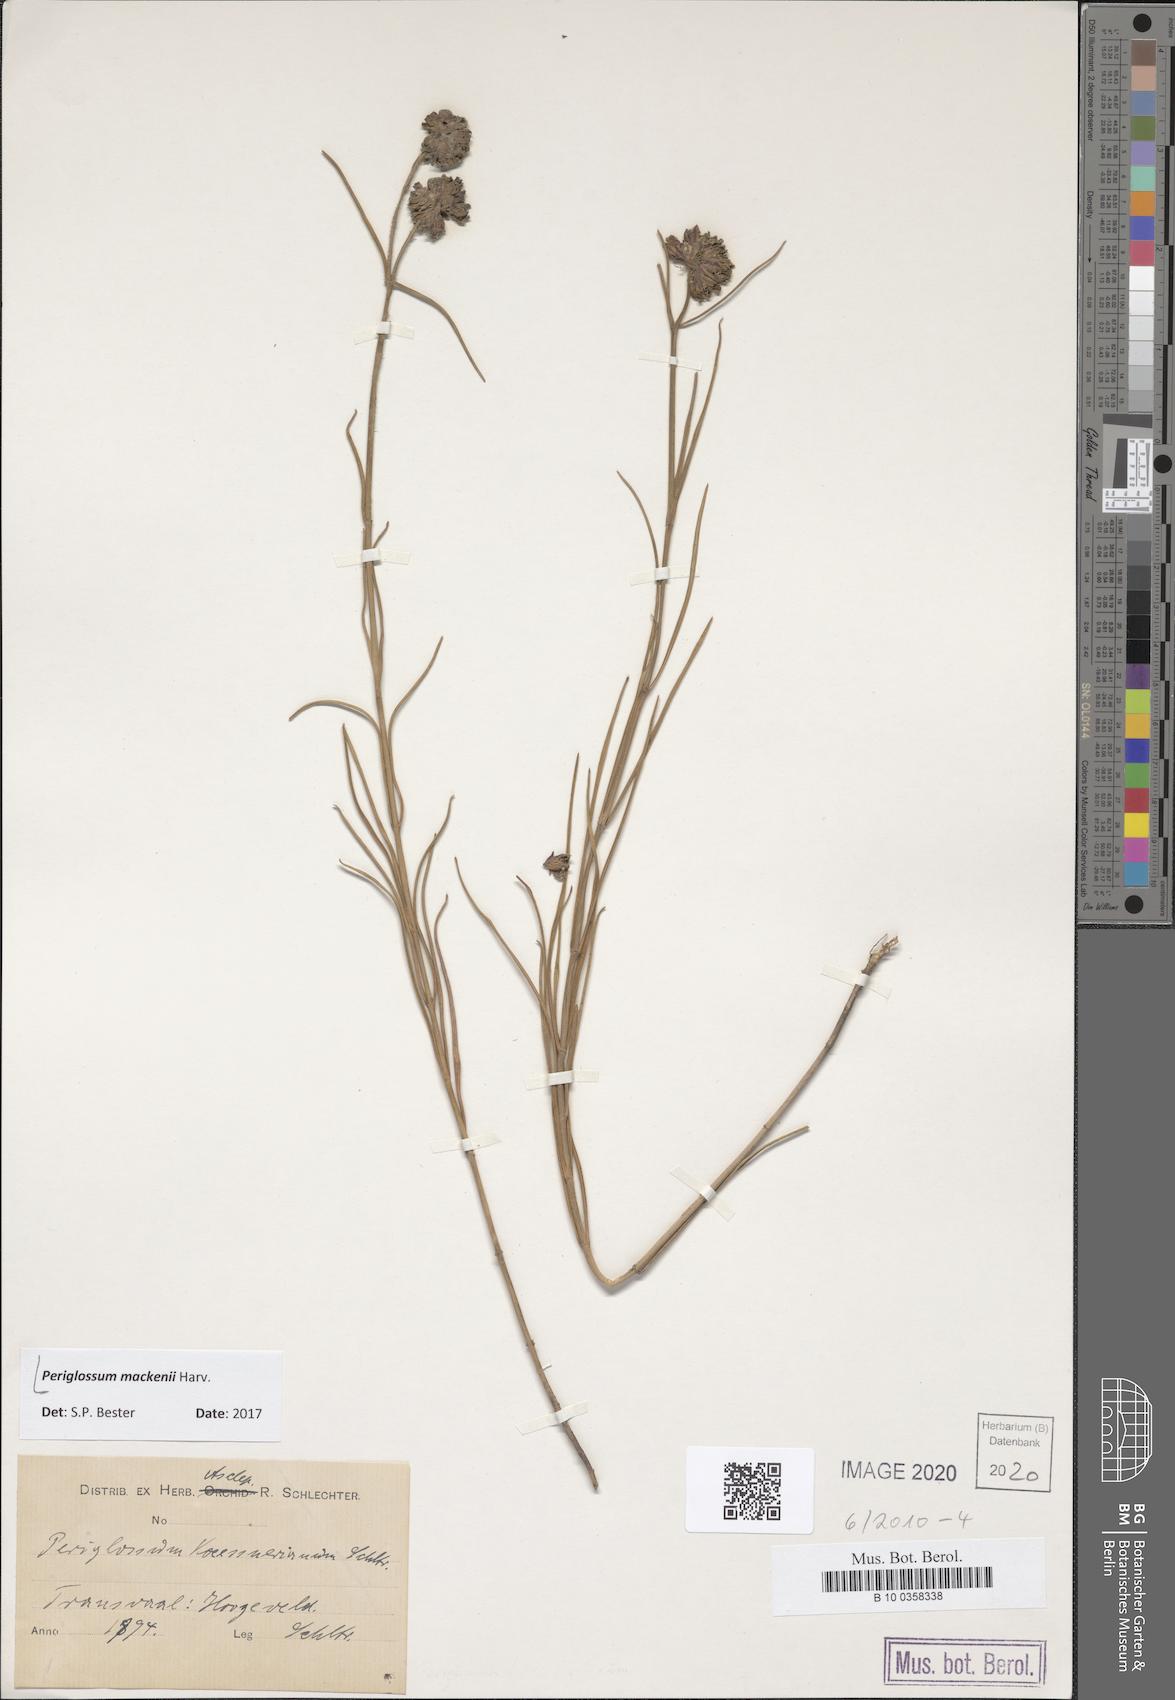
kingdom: Plantae
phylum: Tracheophyta
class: Magnoliopsida
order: Gentianales
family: Apocynaceae
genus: Sisyranthus
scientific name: Sisyranthus macer
